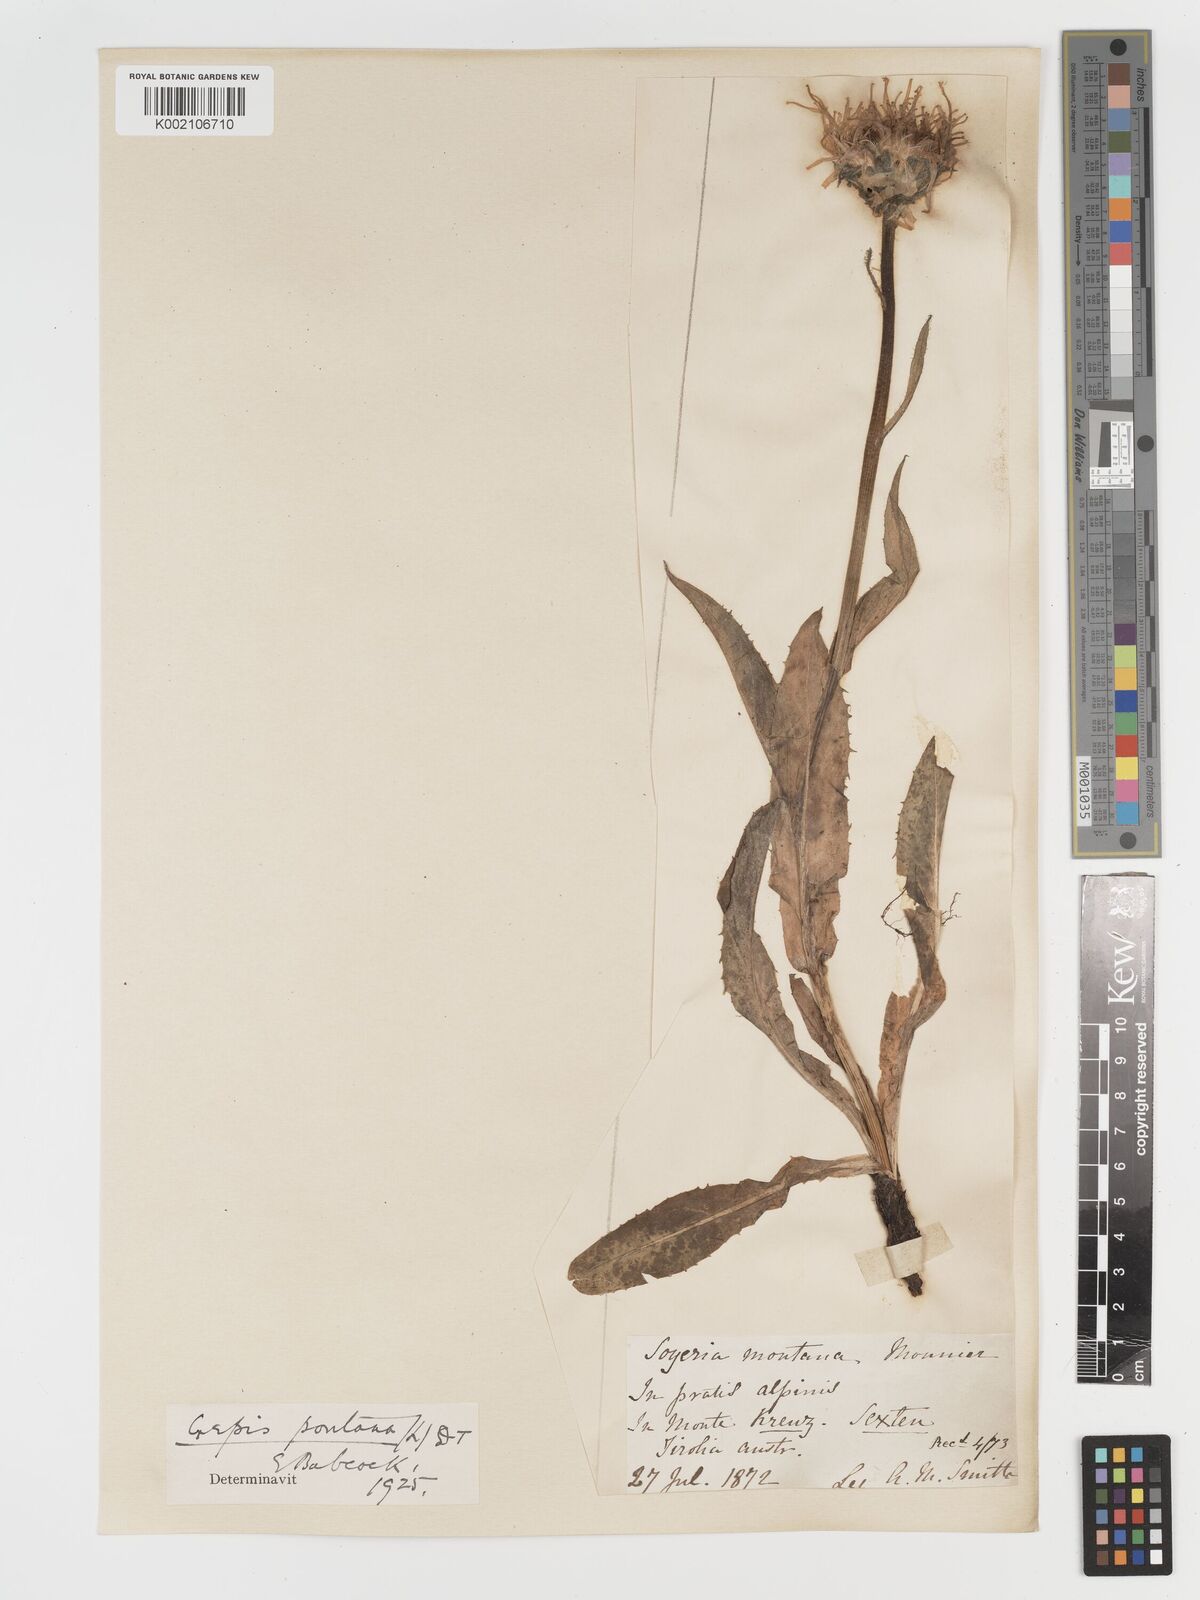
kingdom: Plantae
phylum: Tracheophyta
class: Magnoliopsida
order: Asterales
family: Asteraceae
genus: Crepis
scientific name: Crepis pontana
